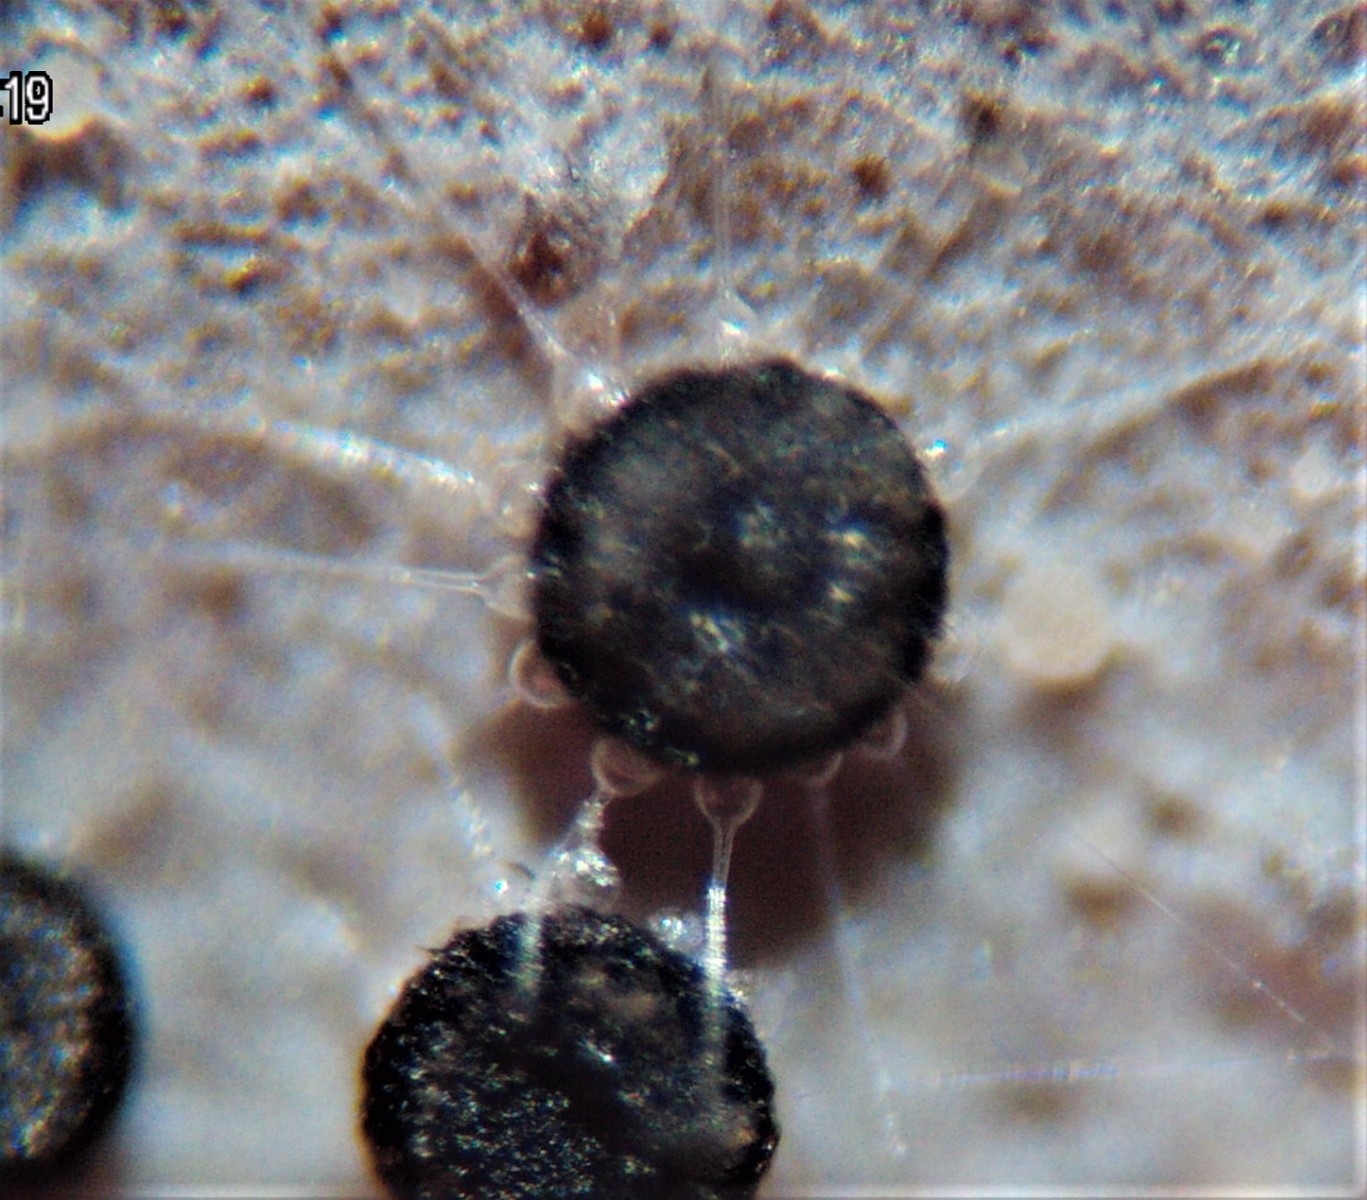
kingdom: Fungi
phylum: Ascomycota
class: Leotiomycetes
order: Helotiales
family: Erysiphaceae
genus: Phyllactinia
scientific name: Phyllactinia orbicularis
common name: bøge-meldug
